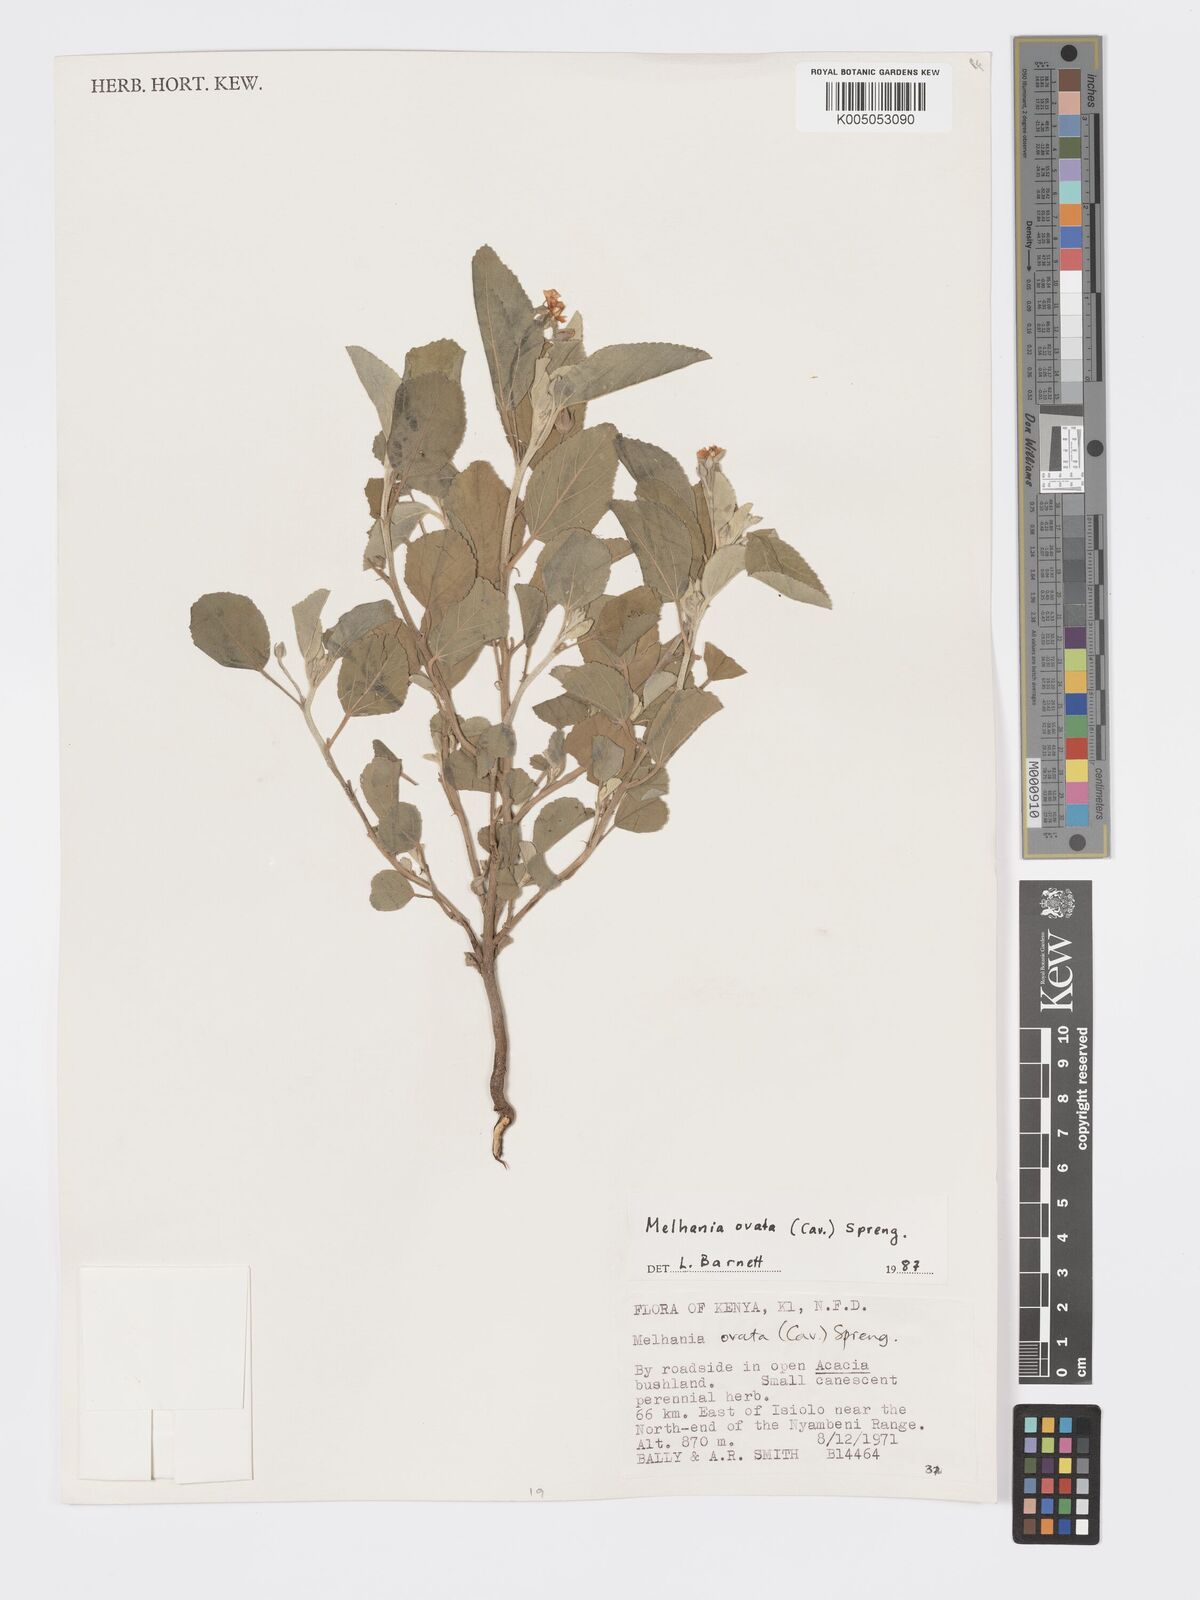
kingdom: Plantae
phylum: Tracheophyta
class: Magnoliopsida
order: Malvales
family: Malvaceae
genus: Melhania
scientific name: Melhania ovata
